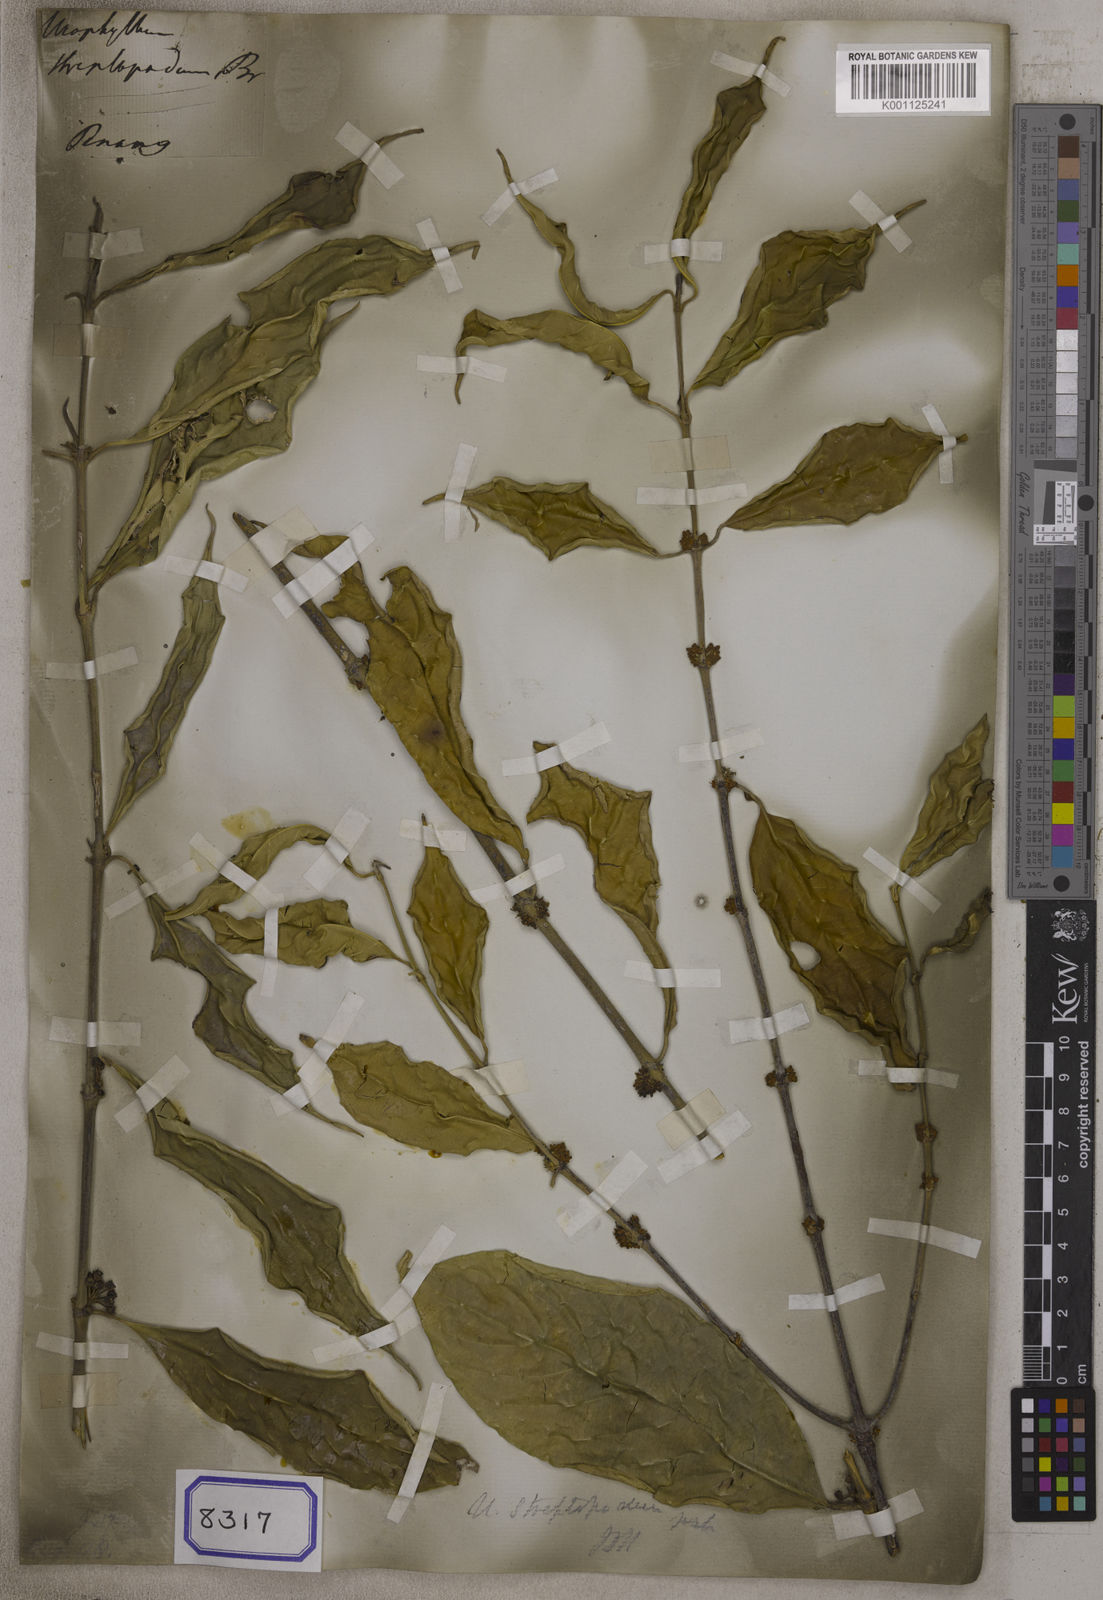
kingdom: Plantae
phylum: Tracheophyta
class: Magnoliopsida
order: Gentianales
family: Rubiaceae
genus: Urophyllum
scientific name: Urophyllum
